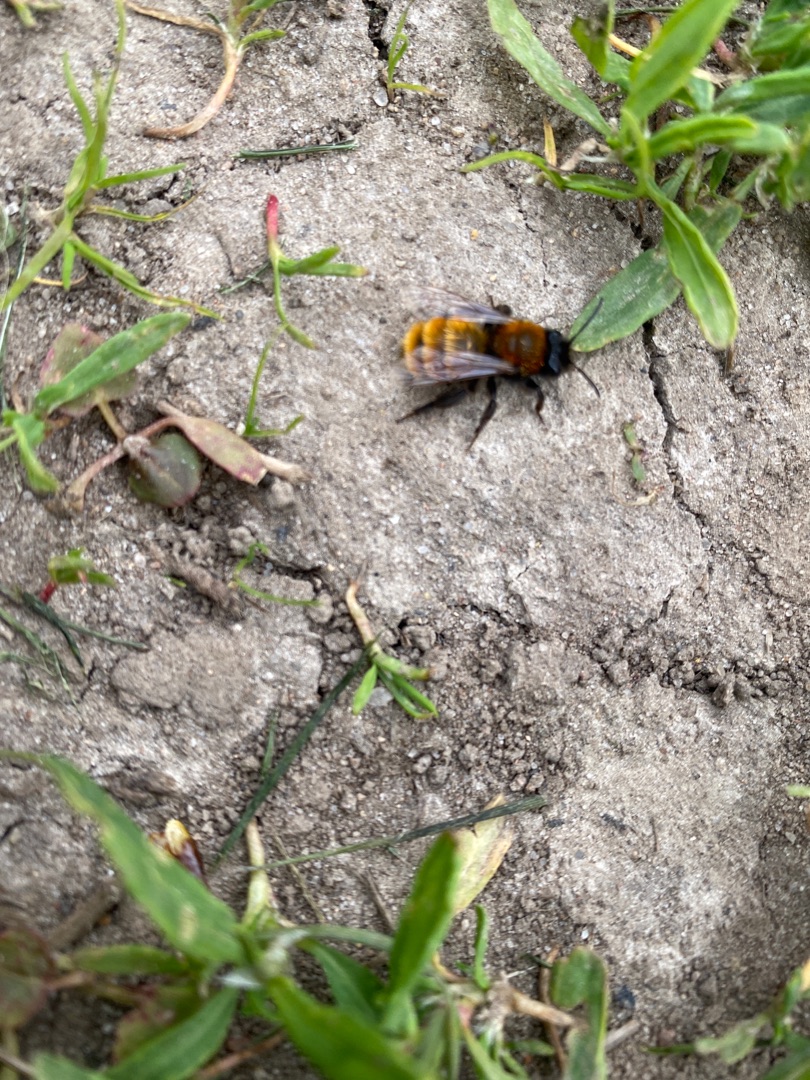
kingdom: Animalia
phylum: Arthropoda
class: Insecta
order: Hymenoptera
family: Andrenidae
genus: Andrena
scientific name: Andrena fulva
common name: Rødpelset jordbi
